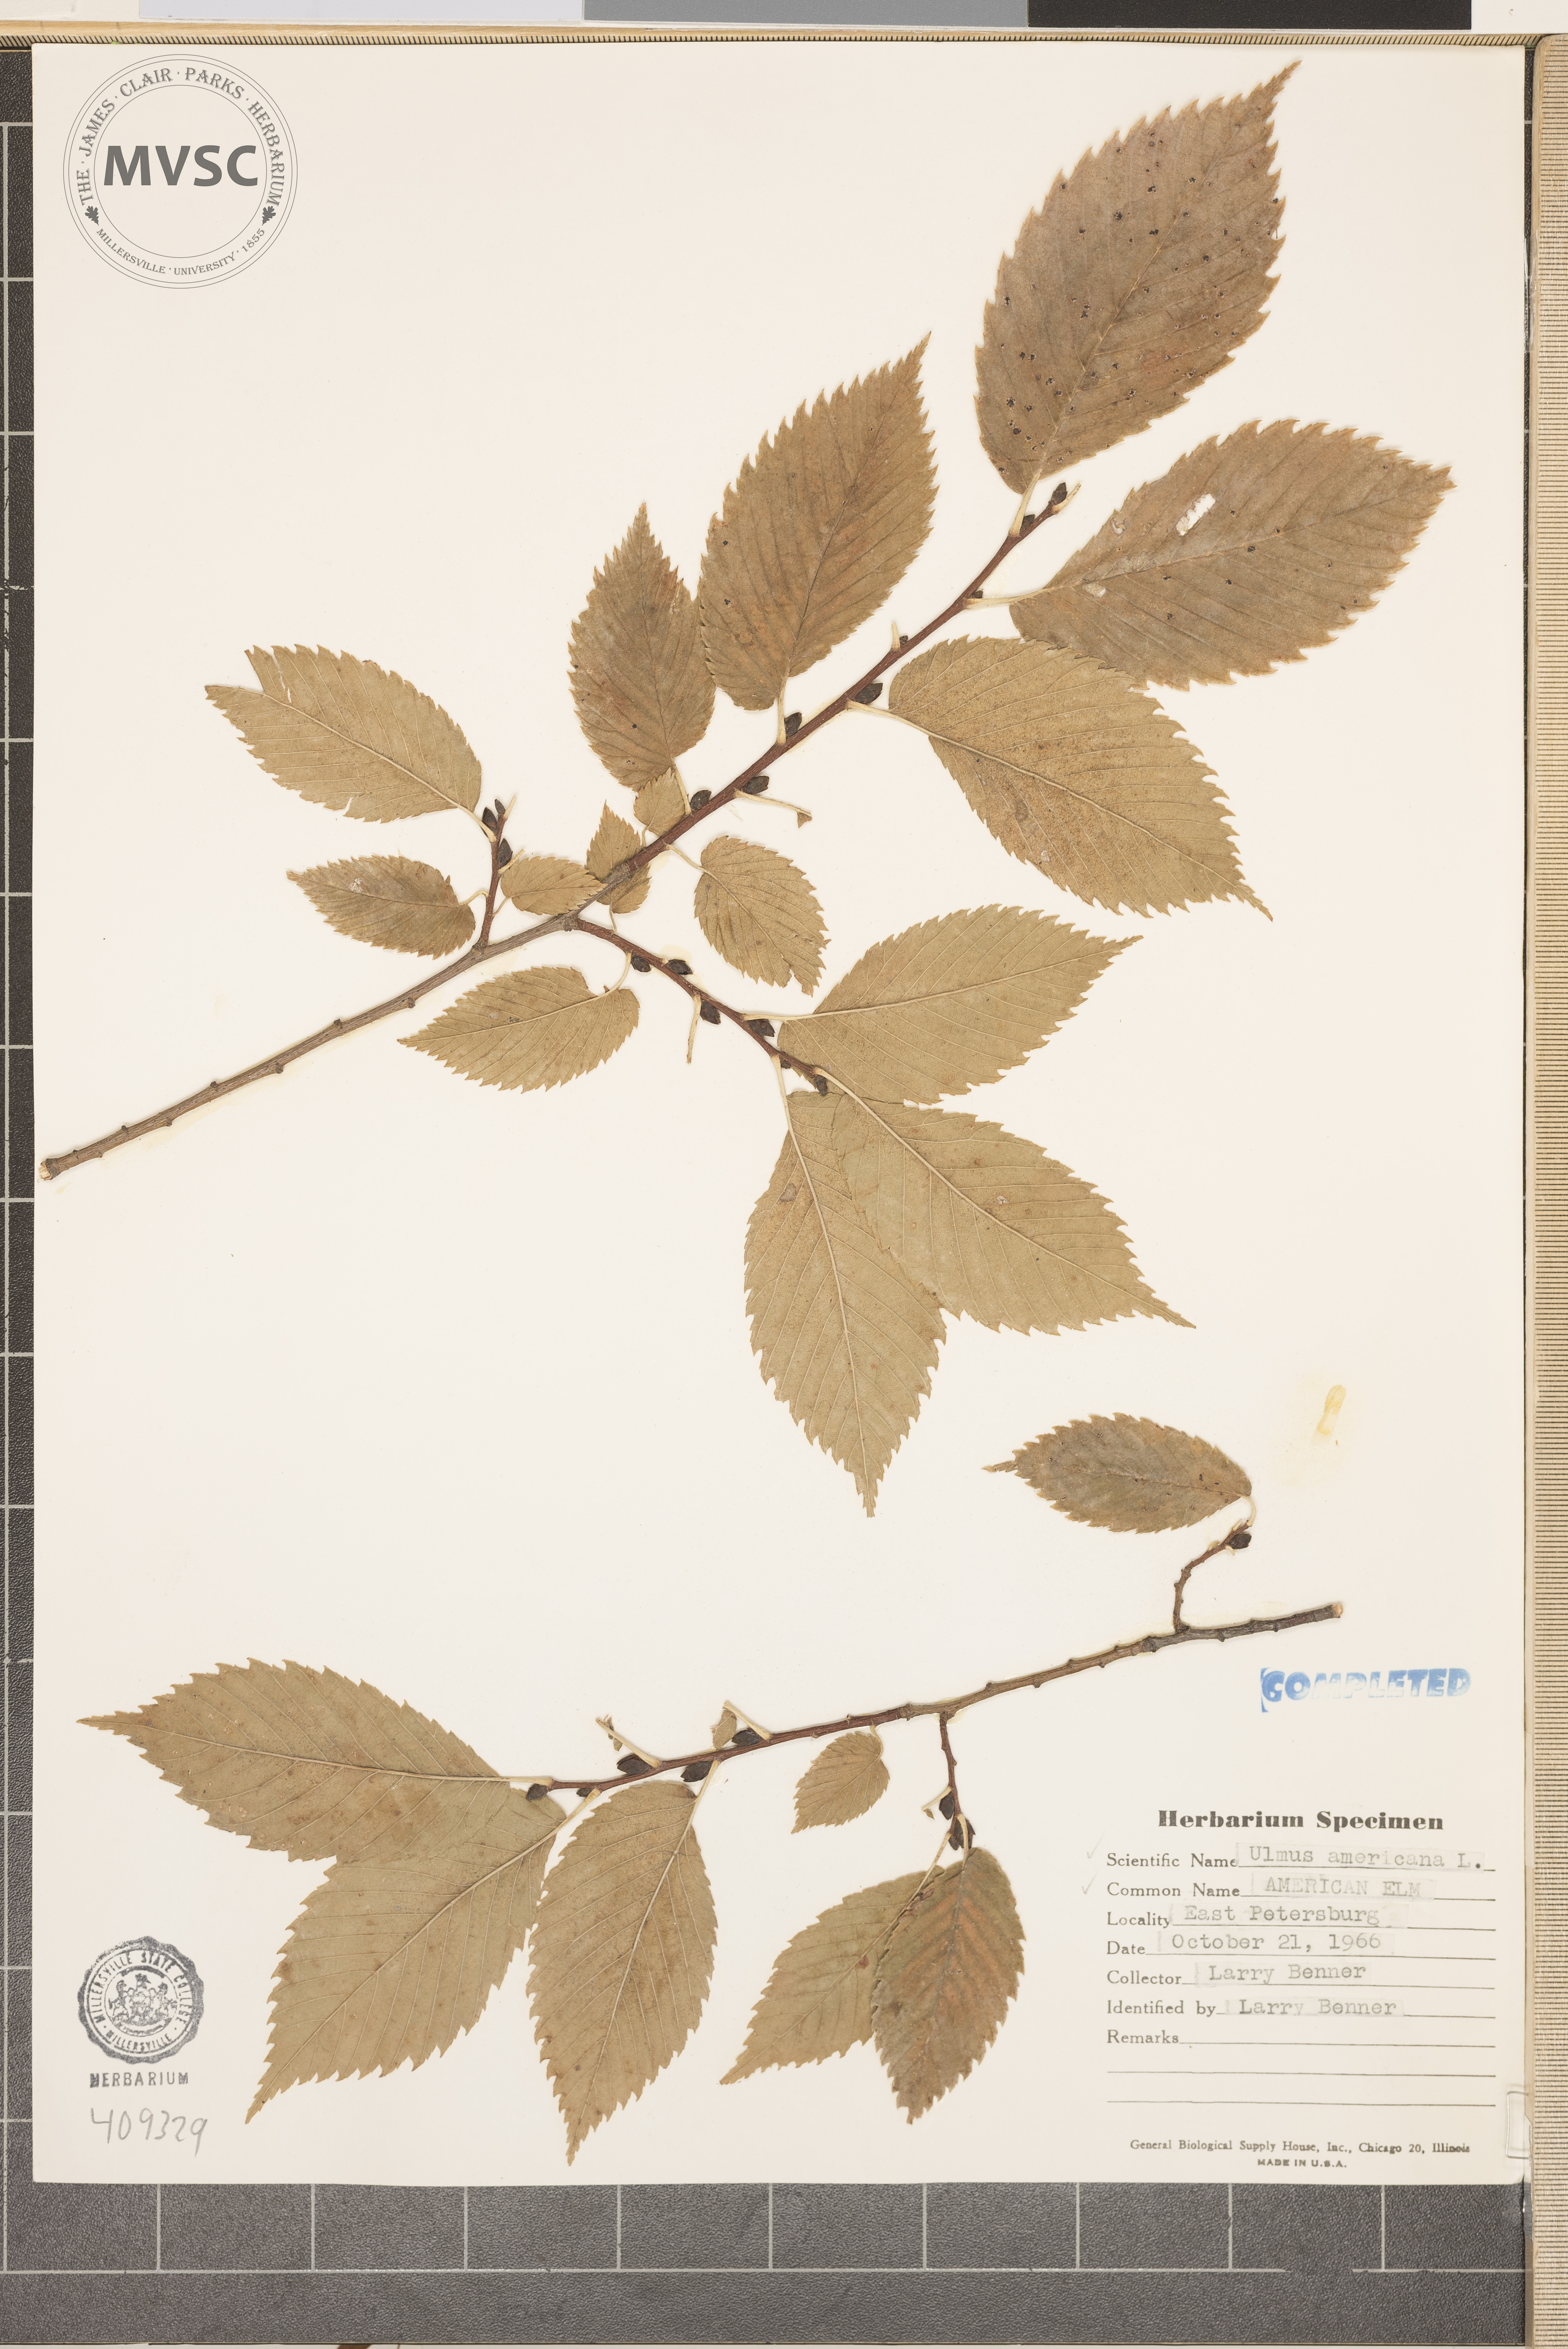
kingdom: Plantae
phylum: Tracheophyta
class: Magnoliopsida
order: Rosales
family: Ulmaceae
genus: Ulmus
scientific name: Ulmus americana
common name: American elm
